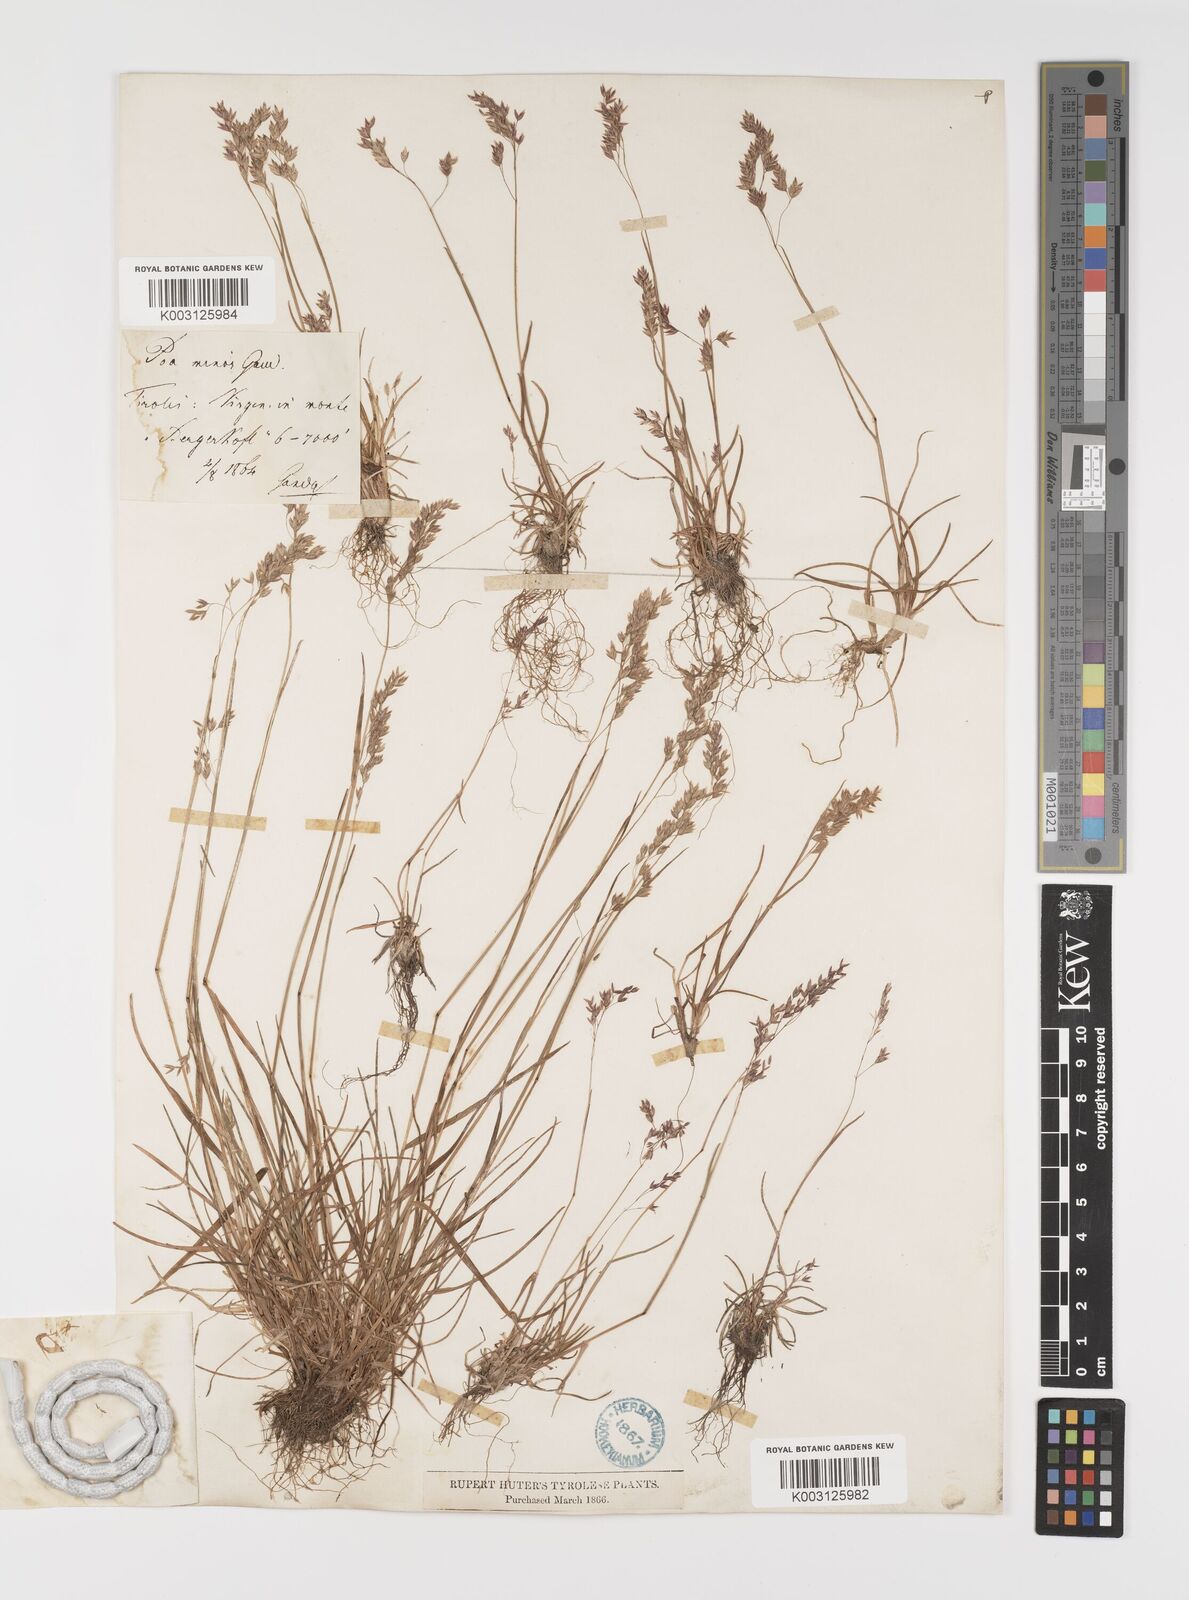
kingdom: Plantae
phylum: Tracheophyta
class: Liliopsida
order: Poales
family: Poaceae
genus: Poa
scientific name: Poa minor
